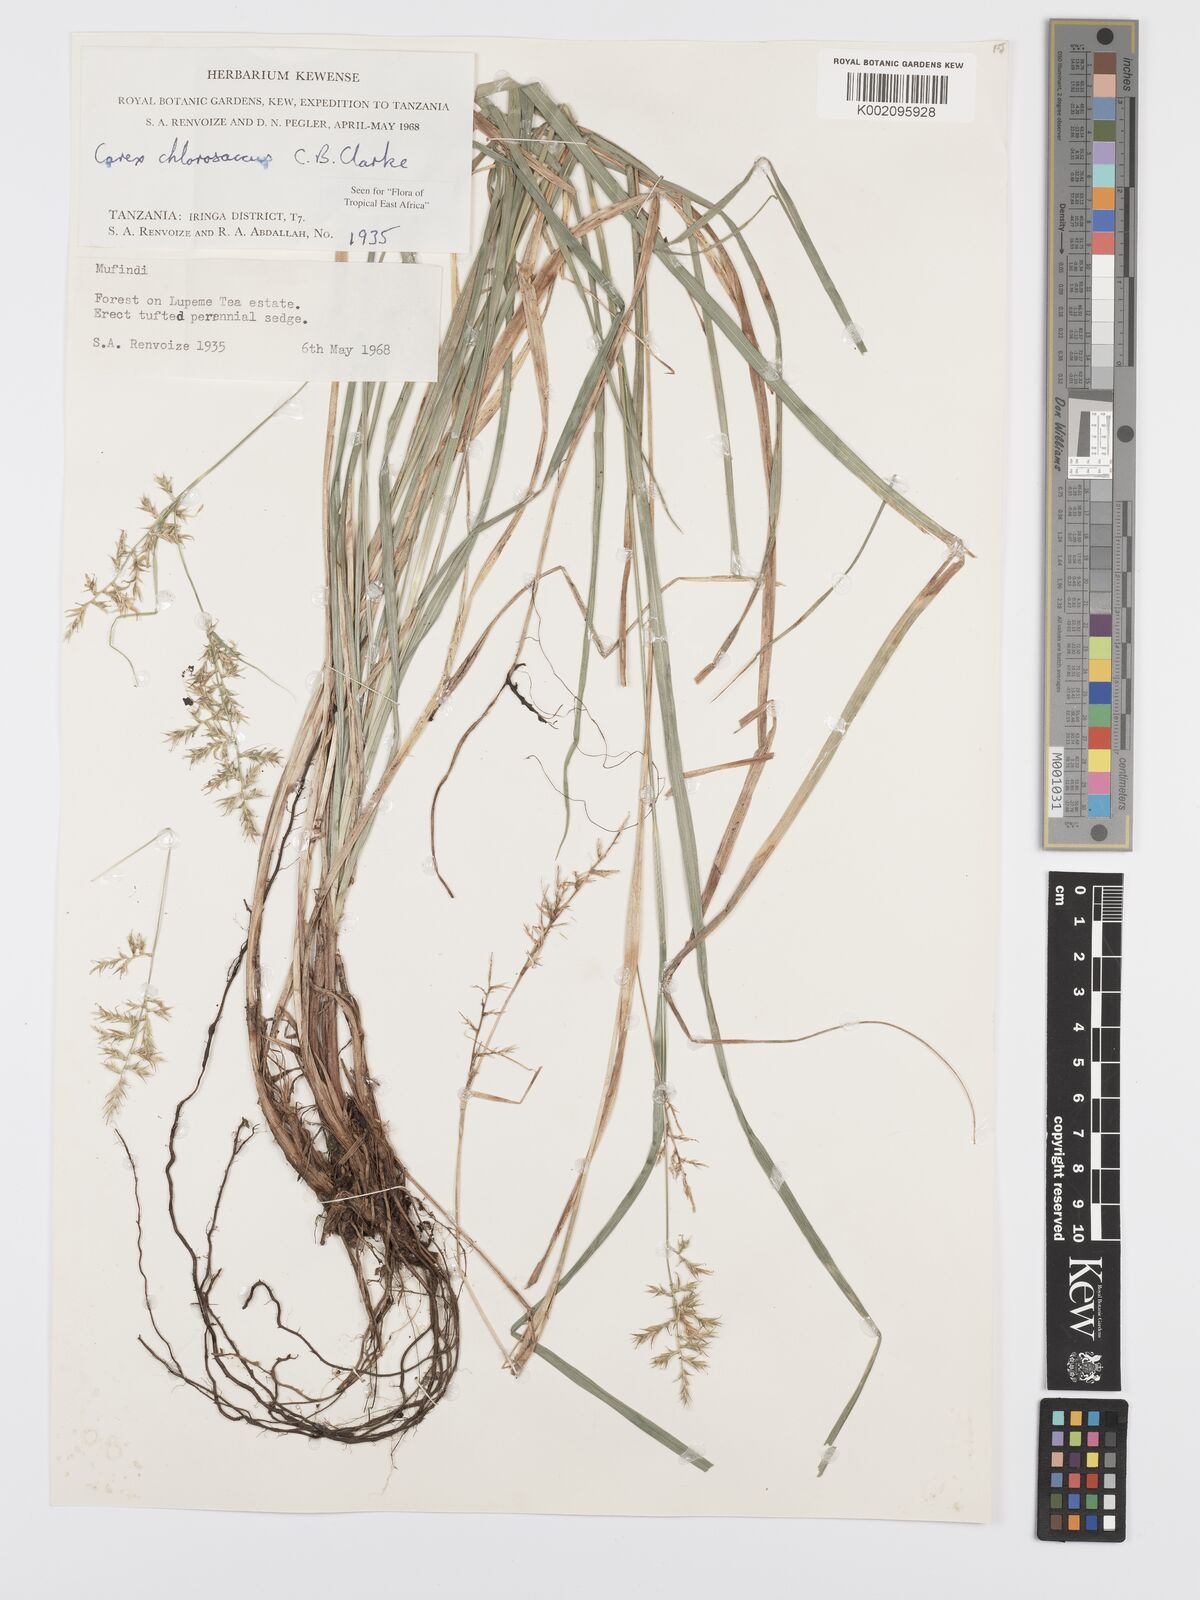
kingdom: Plantae
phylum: Tracheophyta
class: Liliopsida
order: Poales
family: Cyperaceae
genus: Carex
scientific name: Carex chlorosaccus
